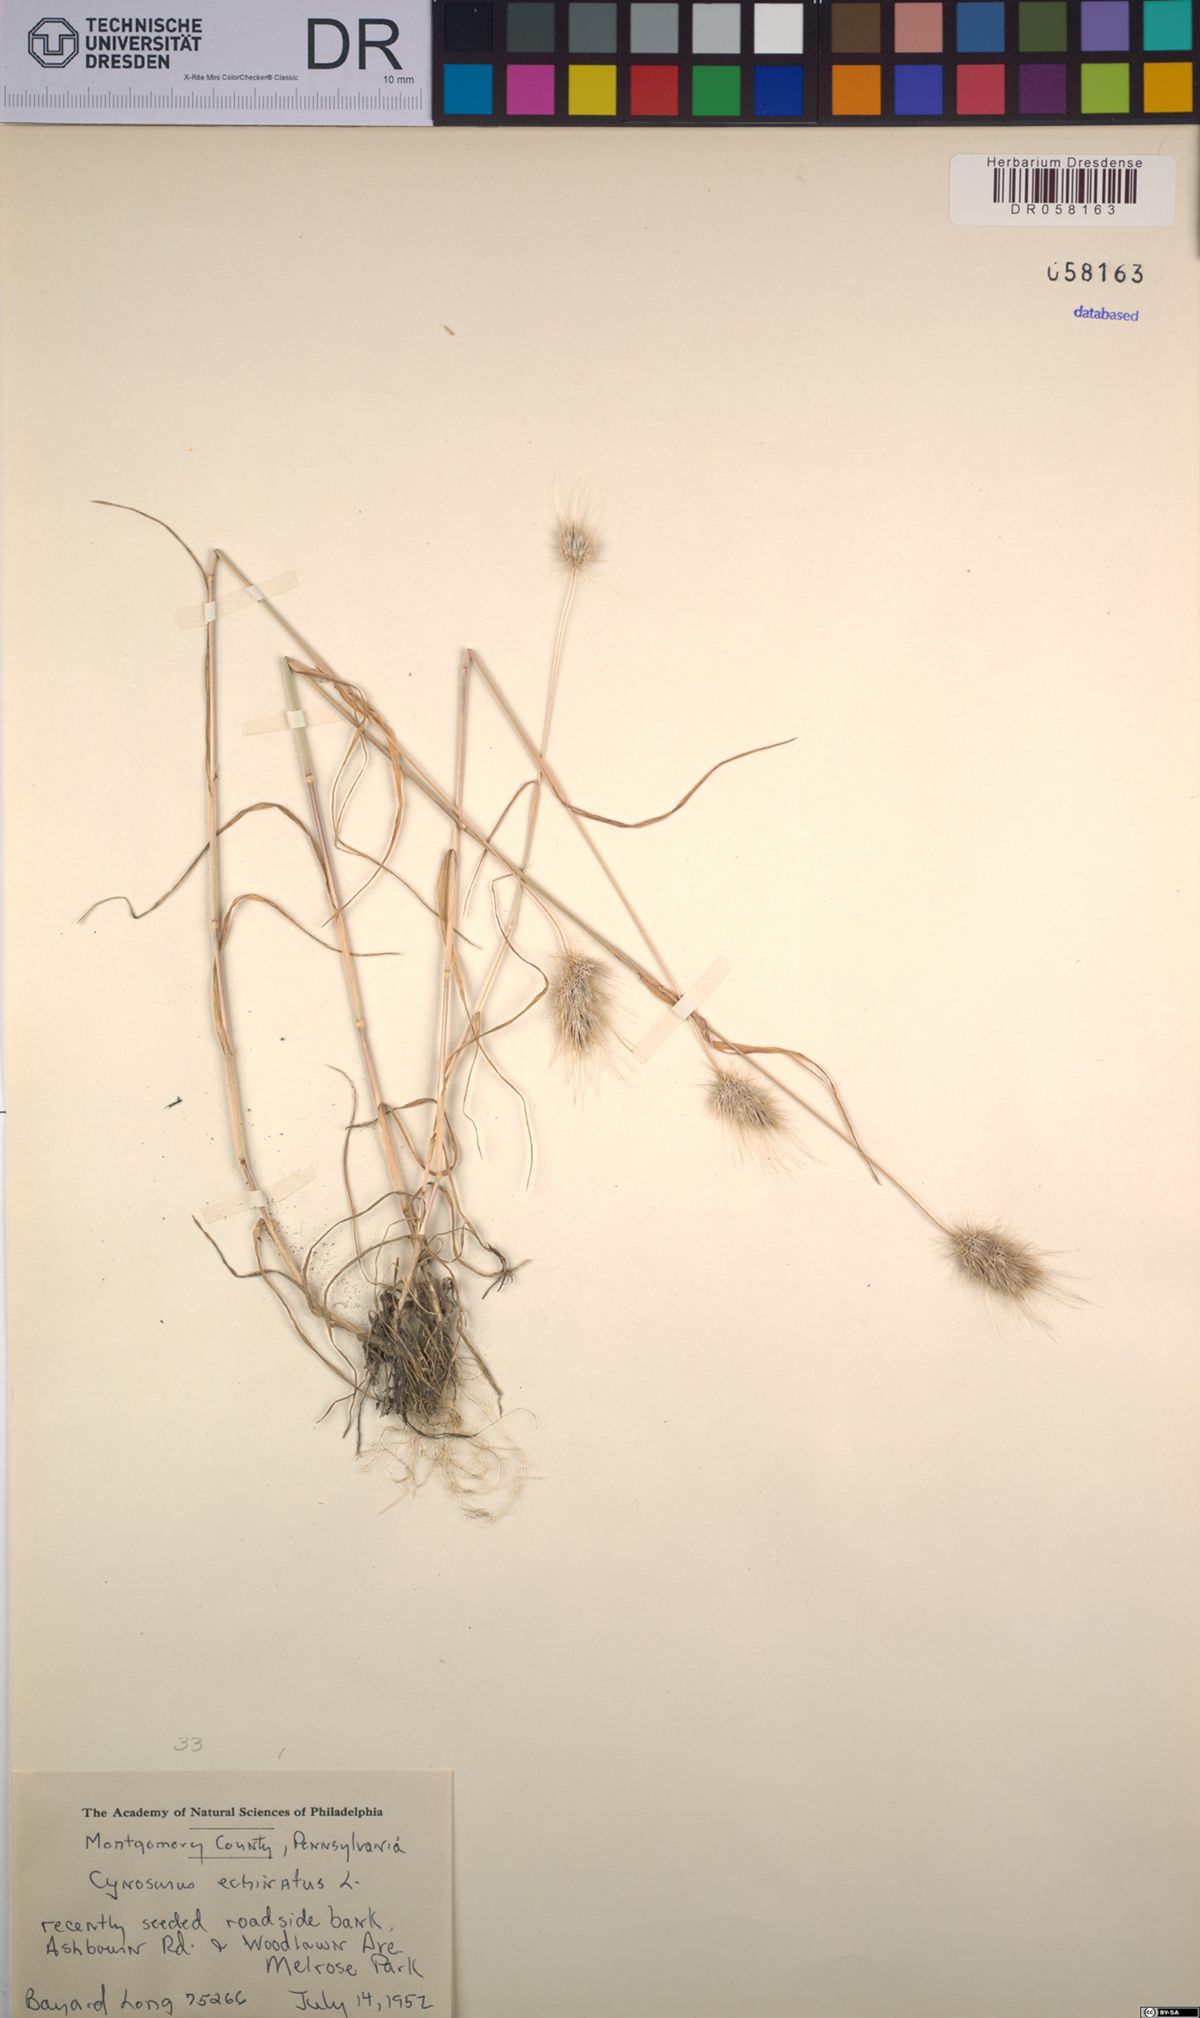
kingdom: Plantae
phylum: Tracheophyta
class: Liliopsida
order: Poales
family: Poaceae
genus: Cynosurus
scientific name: Cynosurus echinatus
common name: Rough dog's-tail
